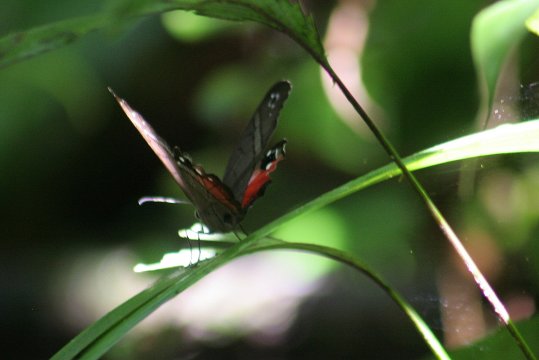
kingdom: Animalia
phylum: Arthropoda
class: Insecta
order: Lepidoptera
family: Nymphalidae
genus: Pierella
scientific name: Pierella helvina
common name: Red-washed Satyr
